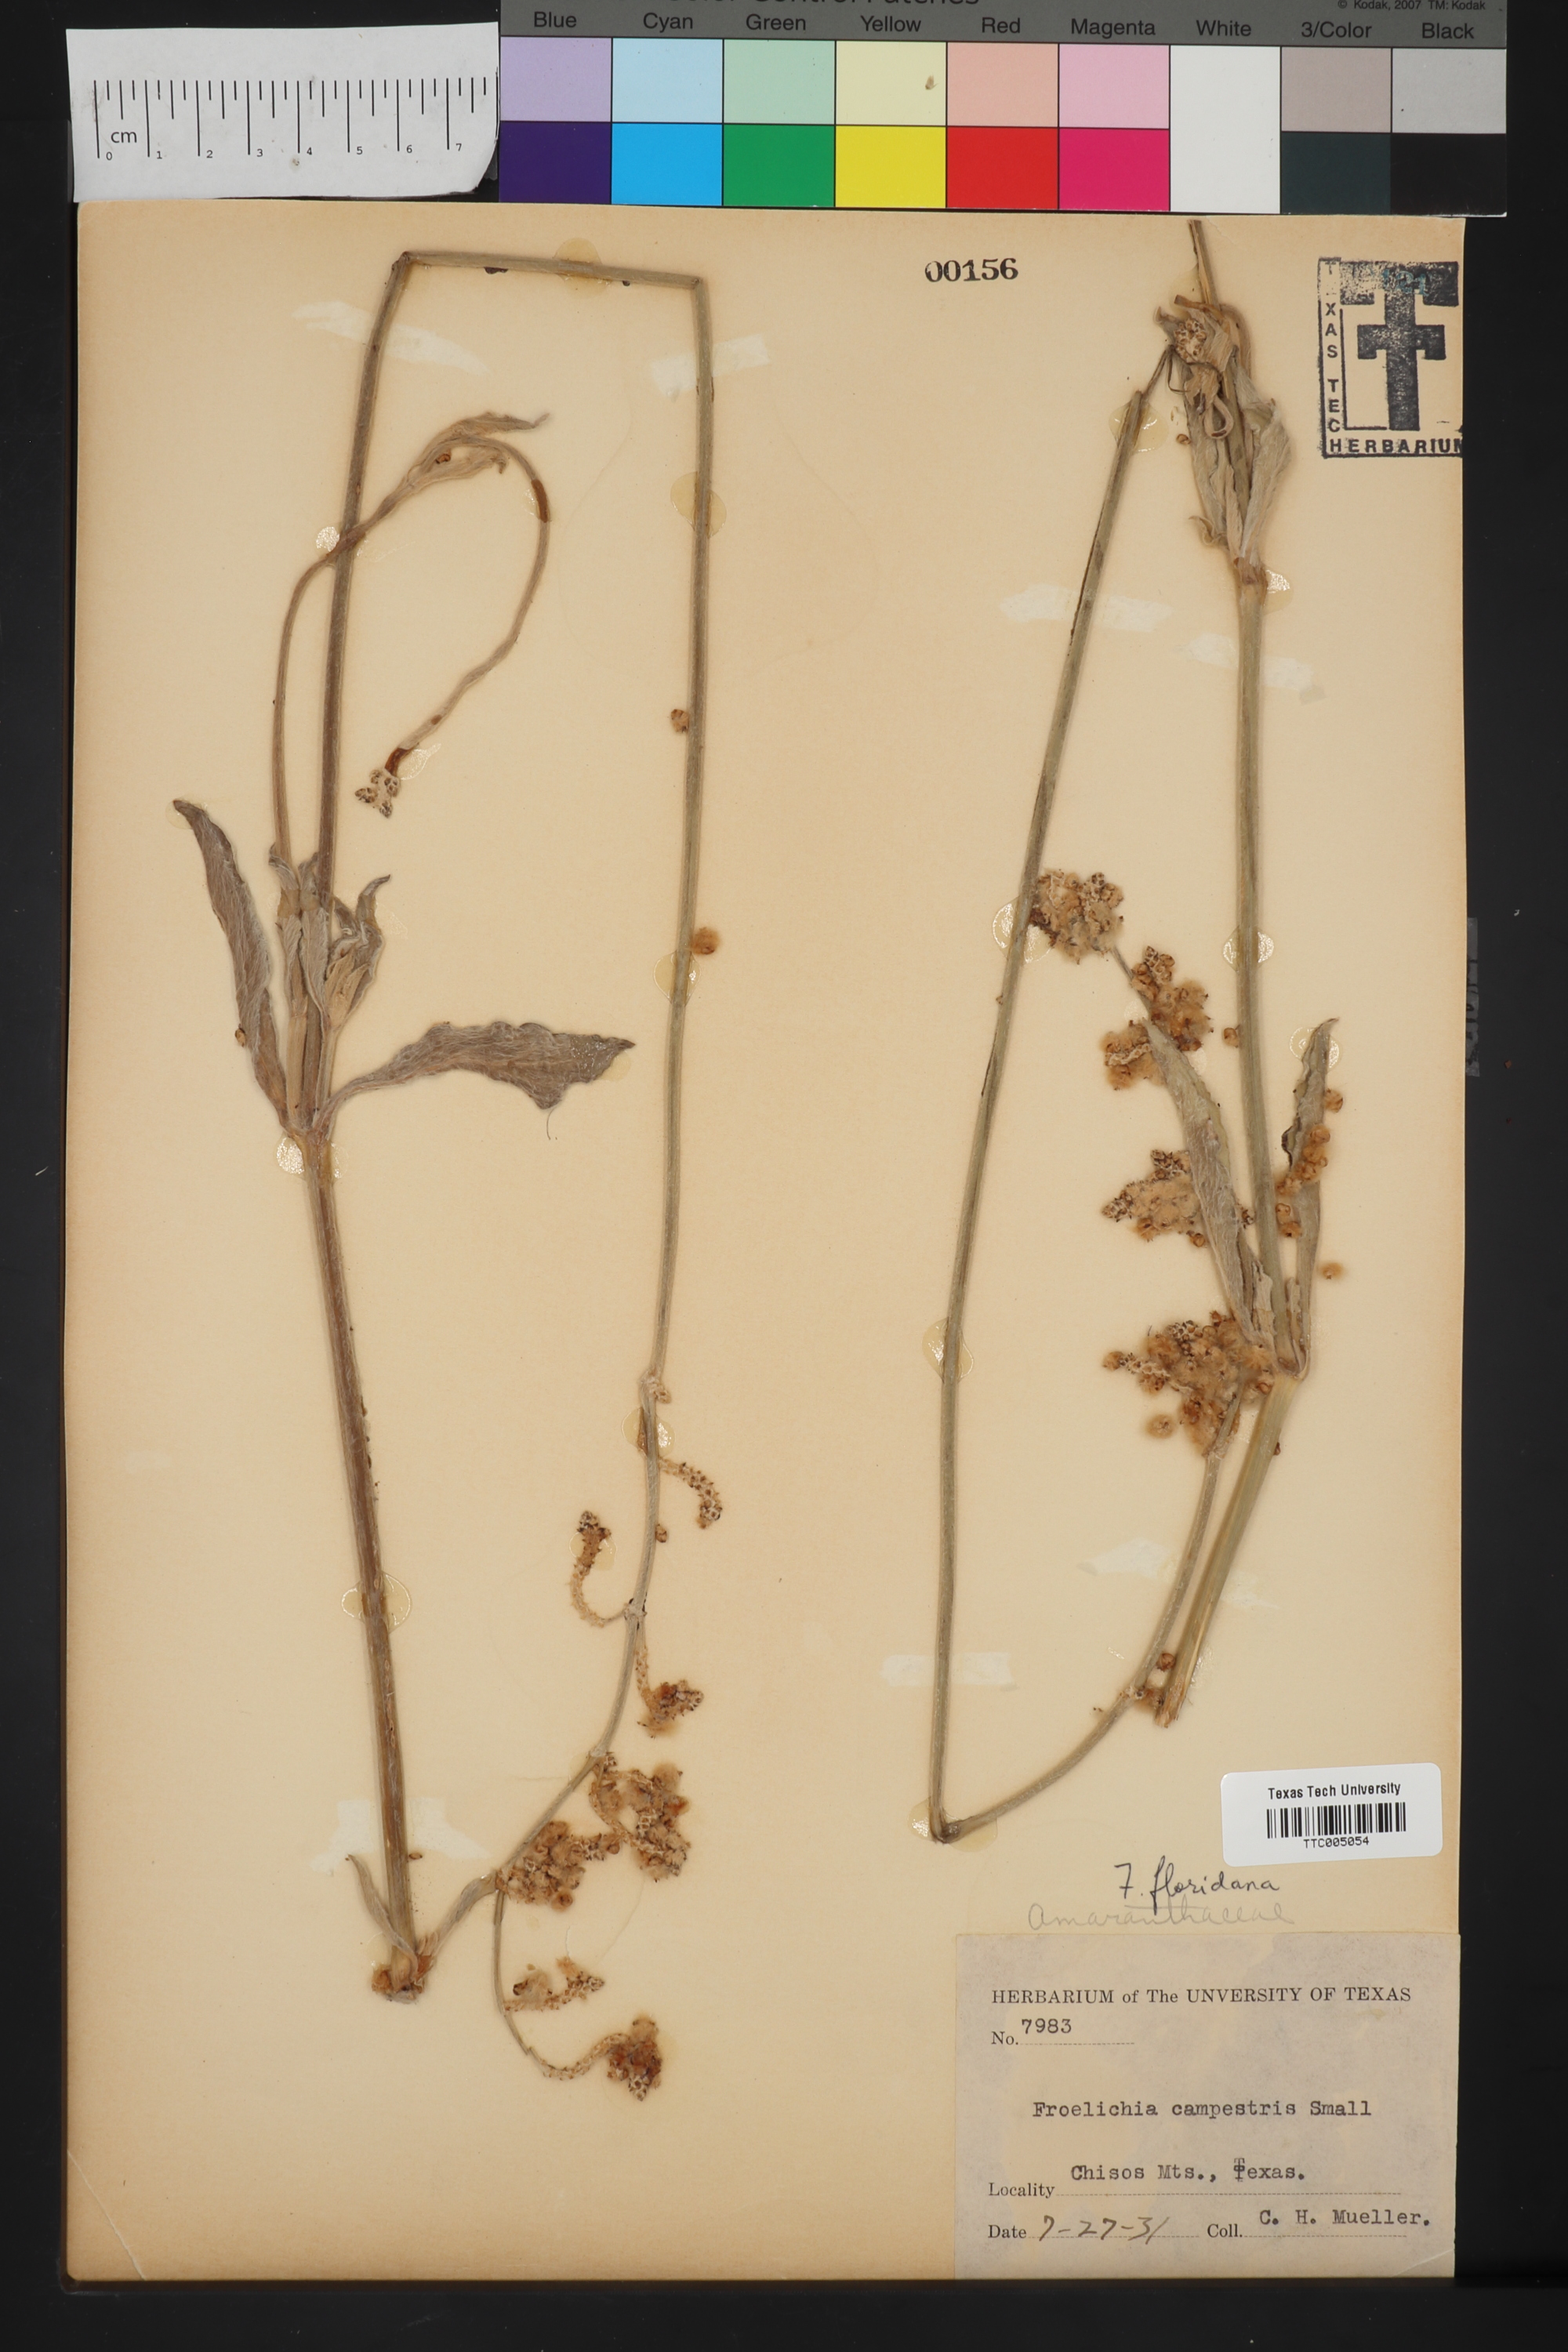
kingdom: Plantae
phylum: Tracheophyta
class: Magnoliopsida
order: Caryophyllales
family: Amaranthaceae
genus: Froelichia
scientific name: Froelichia floridana
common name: Florida snake-cotton
